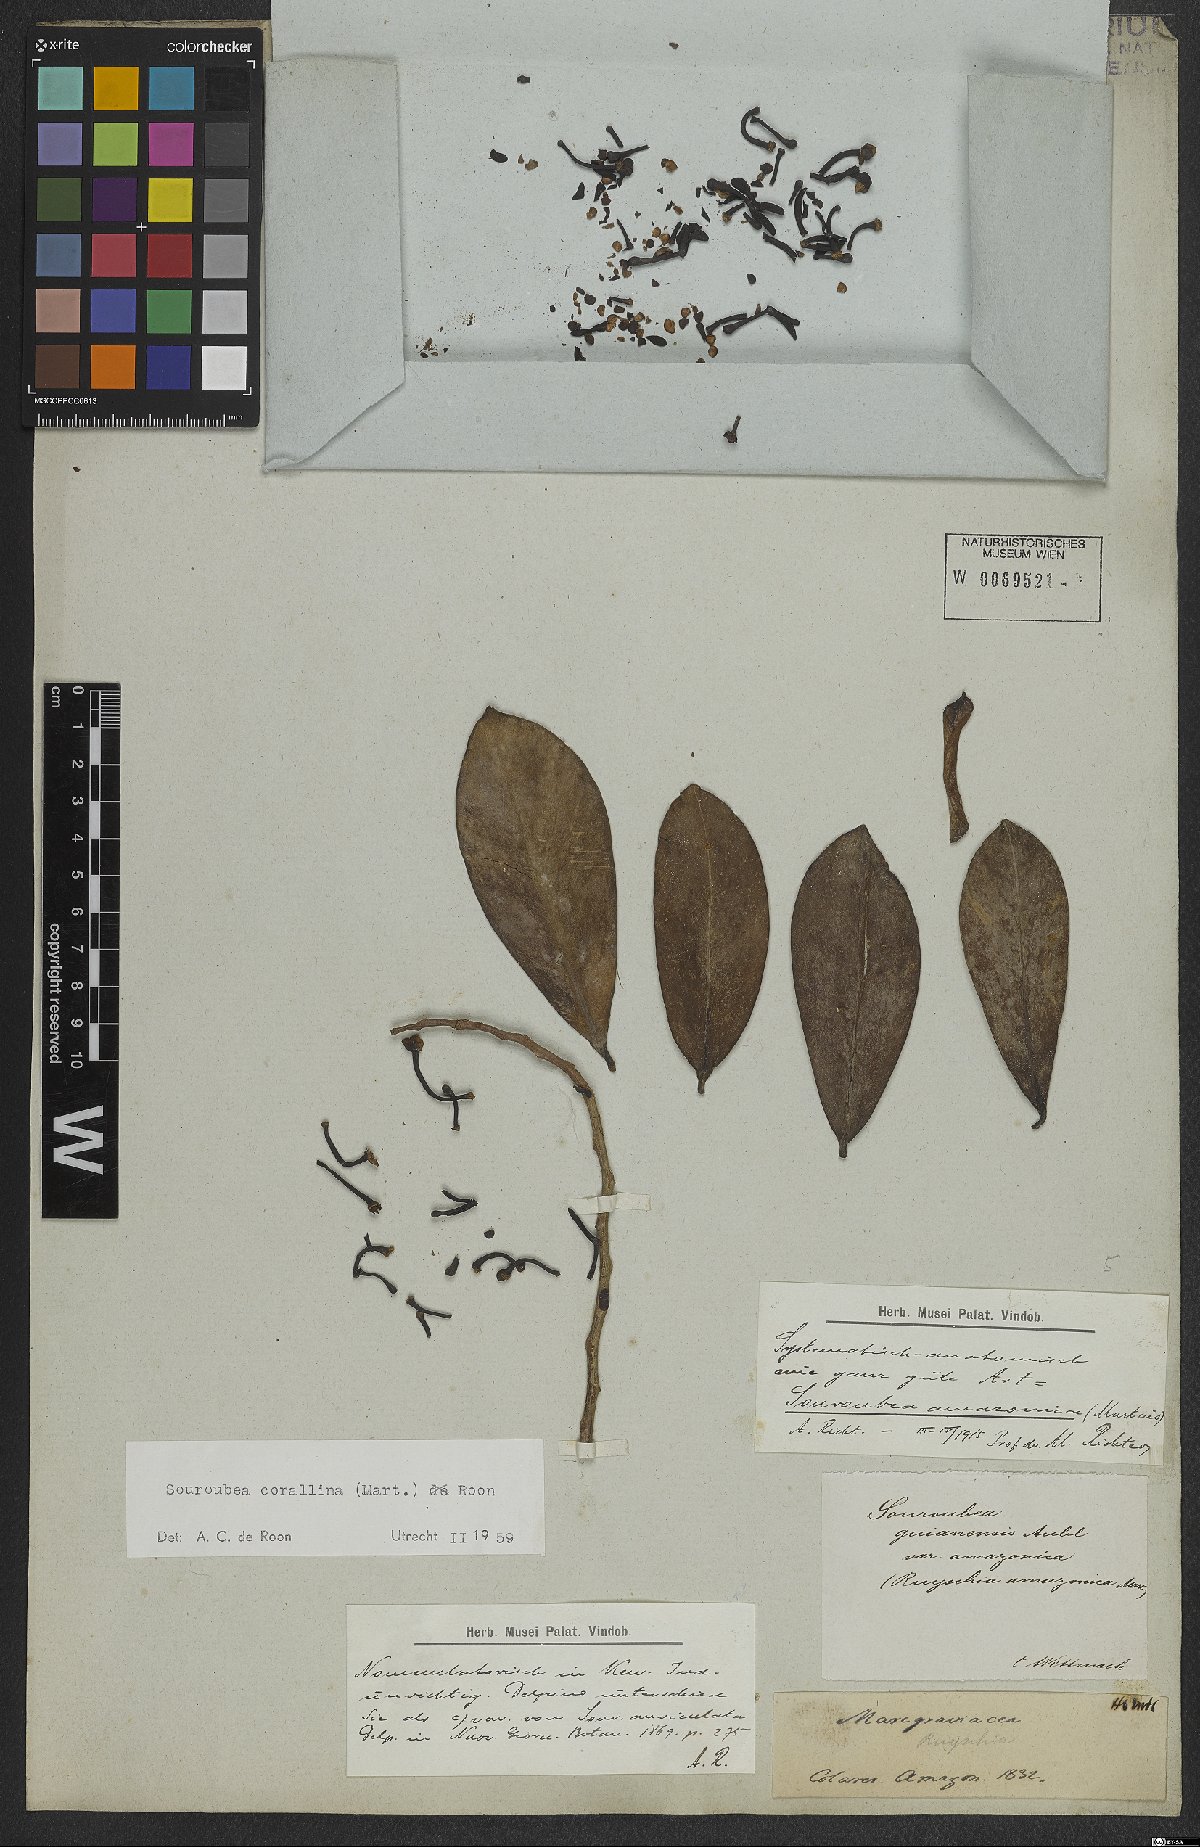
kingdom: Plantae
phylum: Tracheophyta
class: Magnoliopsida
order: Ericales
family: Marcgraviaceae
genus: Souroubea
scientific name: Souroubea corallina
